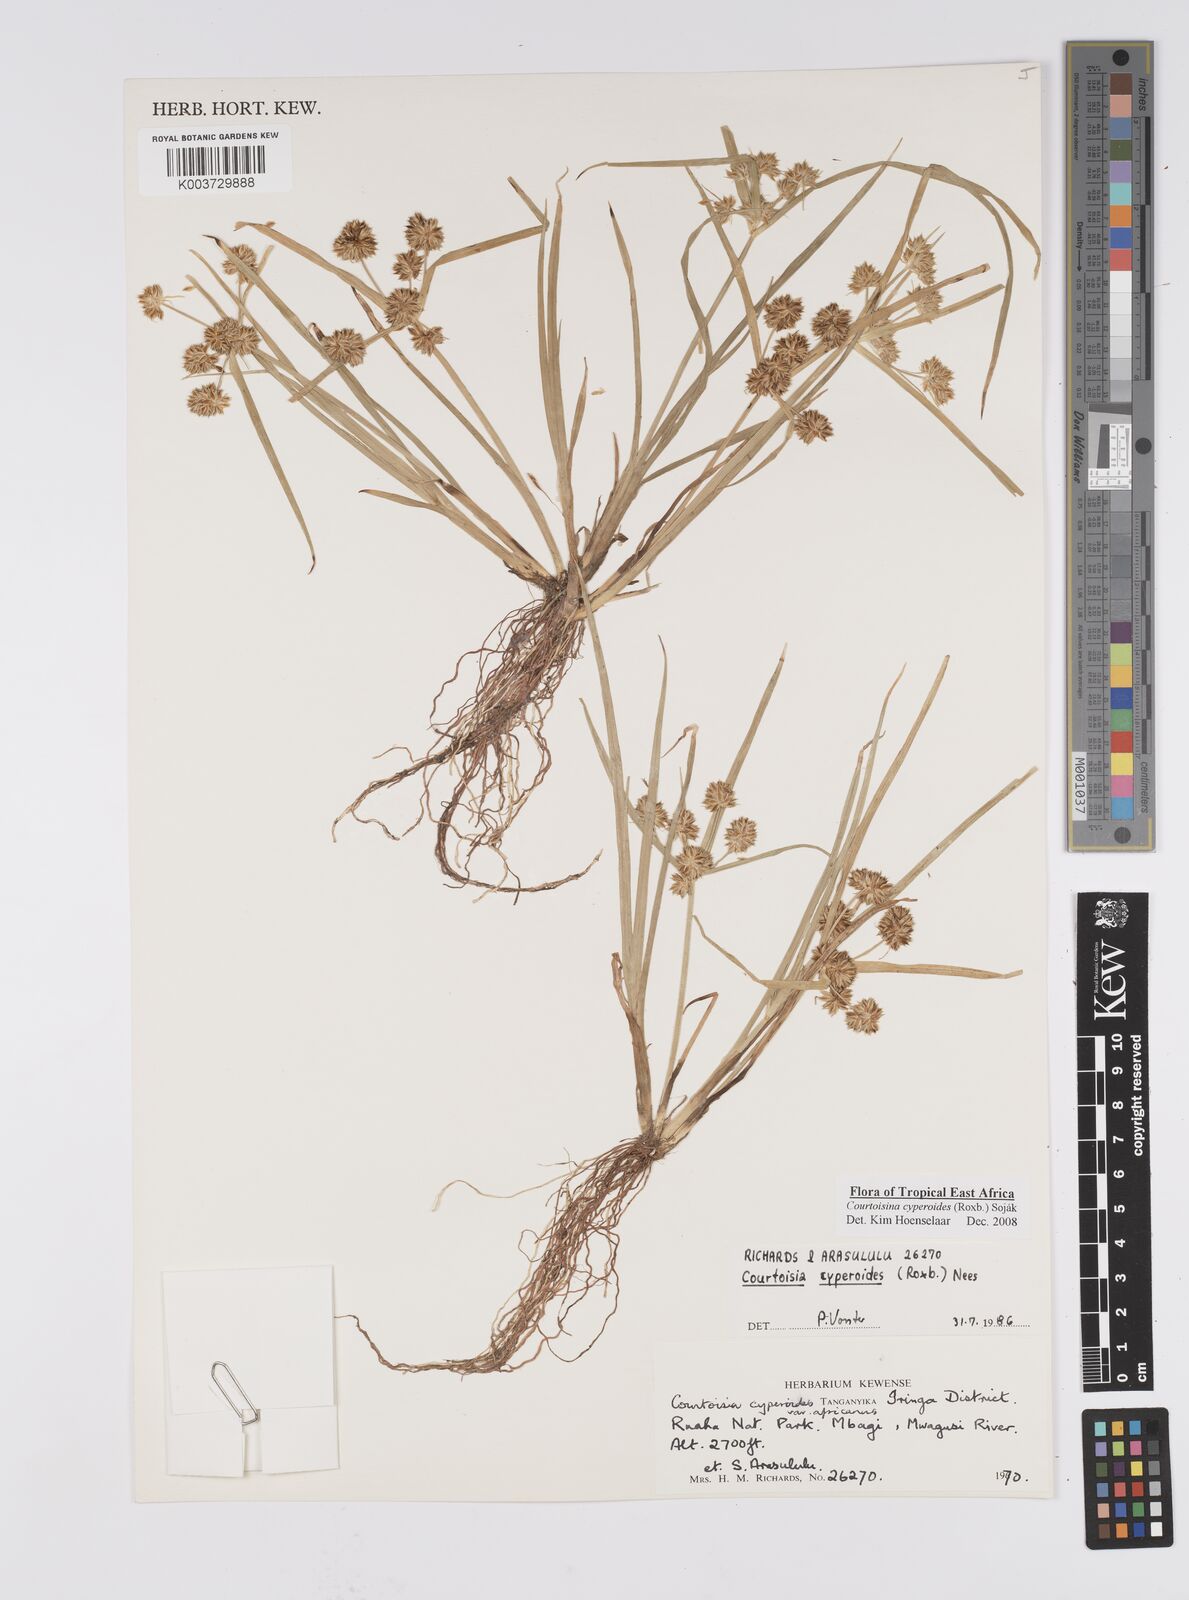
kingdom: Plantae
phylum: Tracheophyta
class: Liliopsida
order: Poales
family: Cyperaceae
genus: Cyperus
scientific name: Cyperus cyperoides
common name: Pacific island flat sedge
